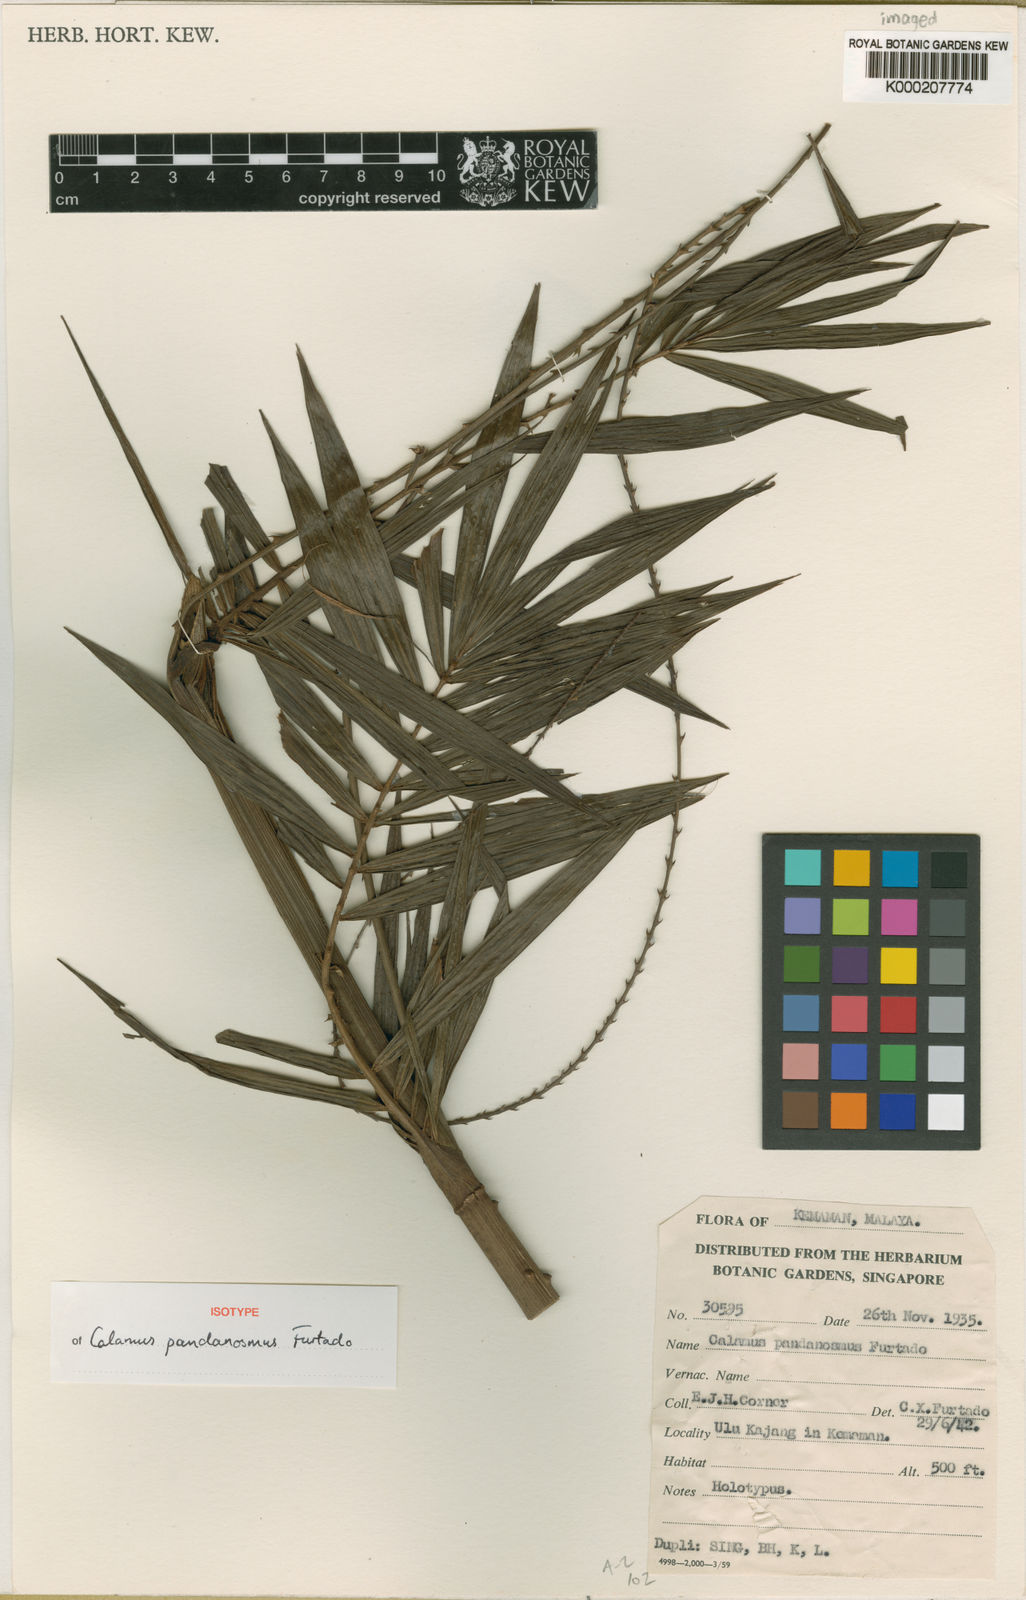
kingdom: Plantae
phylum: Tracheophyta
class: Liliopsida
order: Arecales
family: Arecaceae
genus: Calamus
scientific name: Calamus pandanosmus
